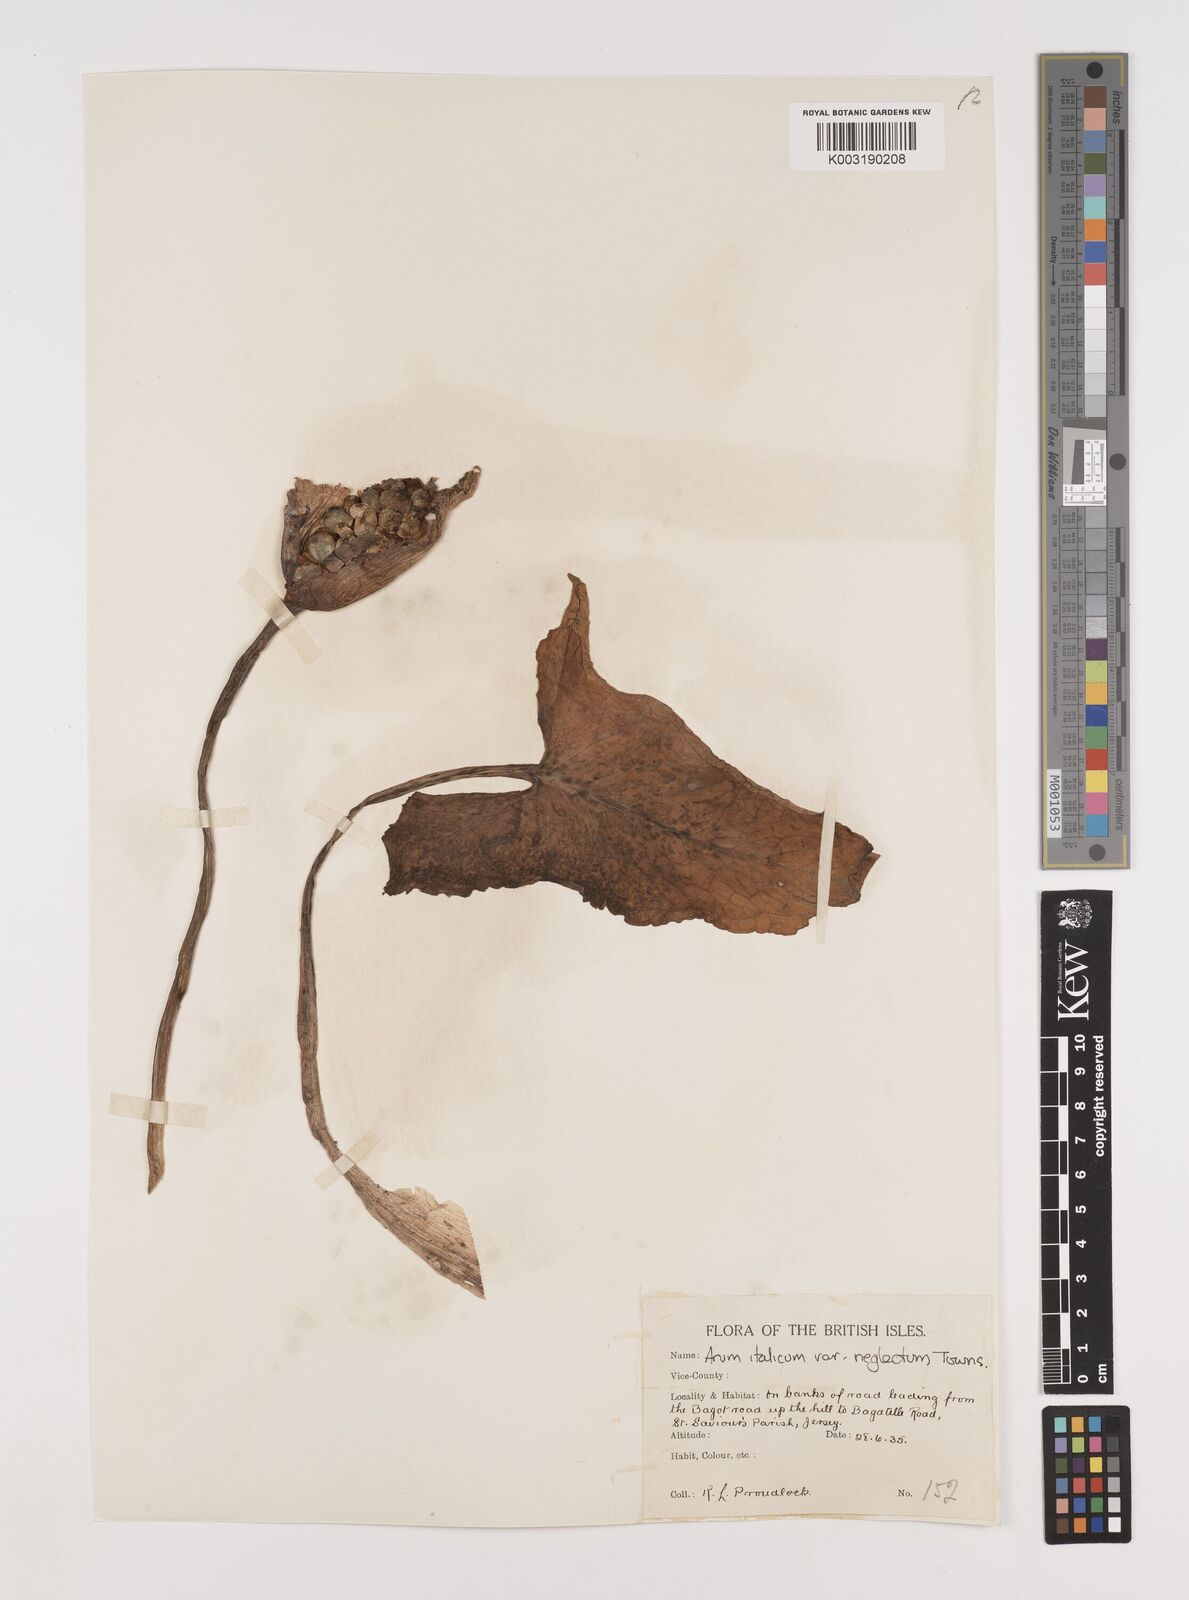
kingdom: Plantae
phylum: Tracheophyta
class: Liliopsida
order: Alismatales
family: Araceae
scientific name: Araceae
